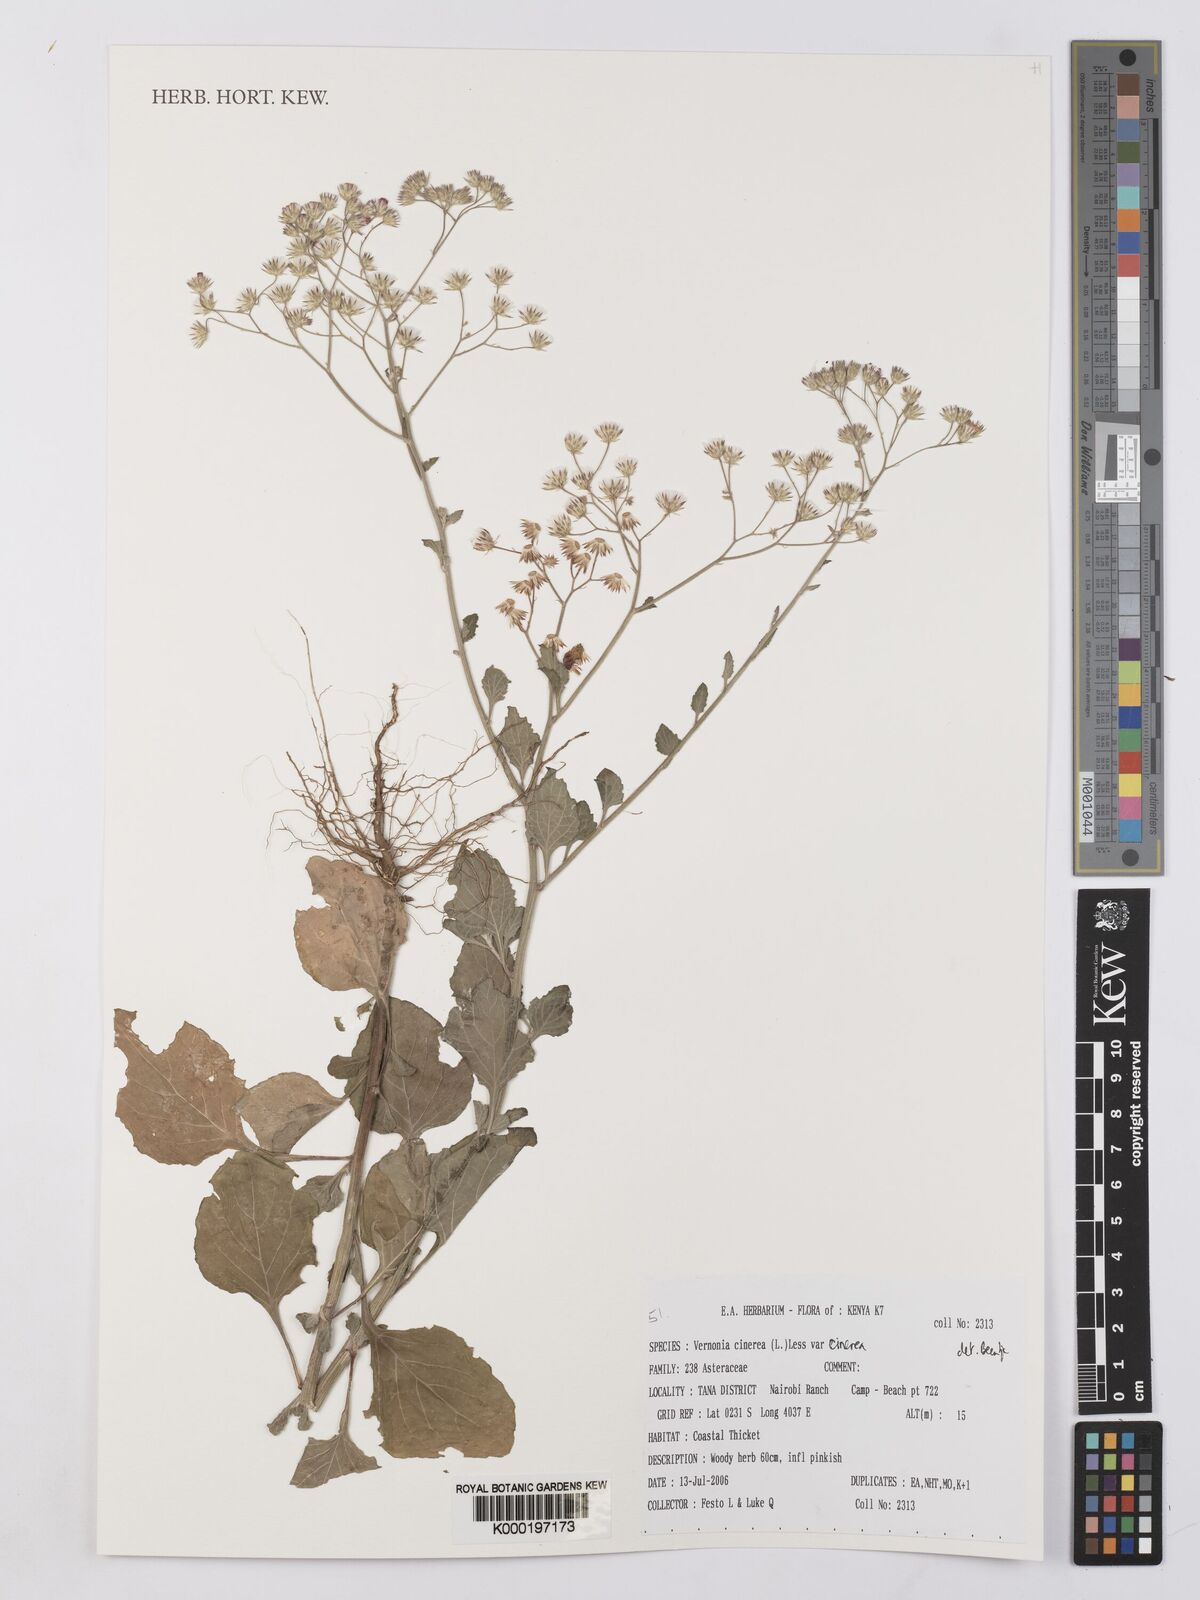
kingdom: Plantae
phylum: Tracheophyta
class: Magnoliopsida
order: Asterales
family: Asteraceae
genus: Cyanthillium
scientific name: Cyanthillium cinereum
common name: Little ironweed
